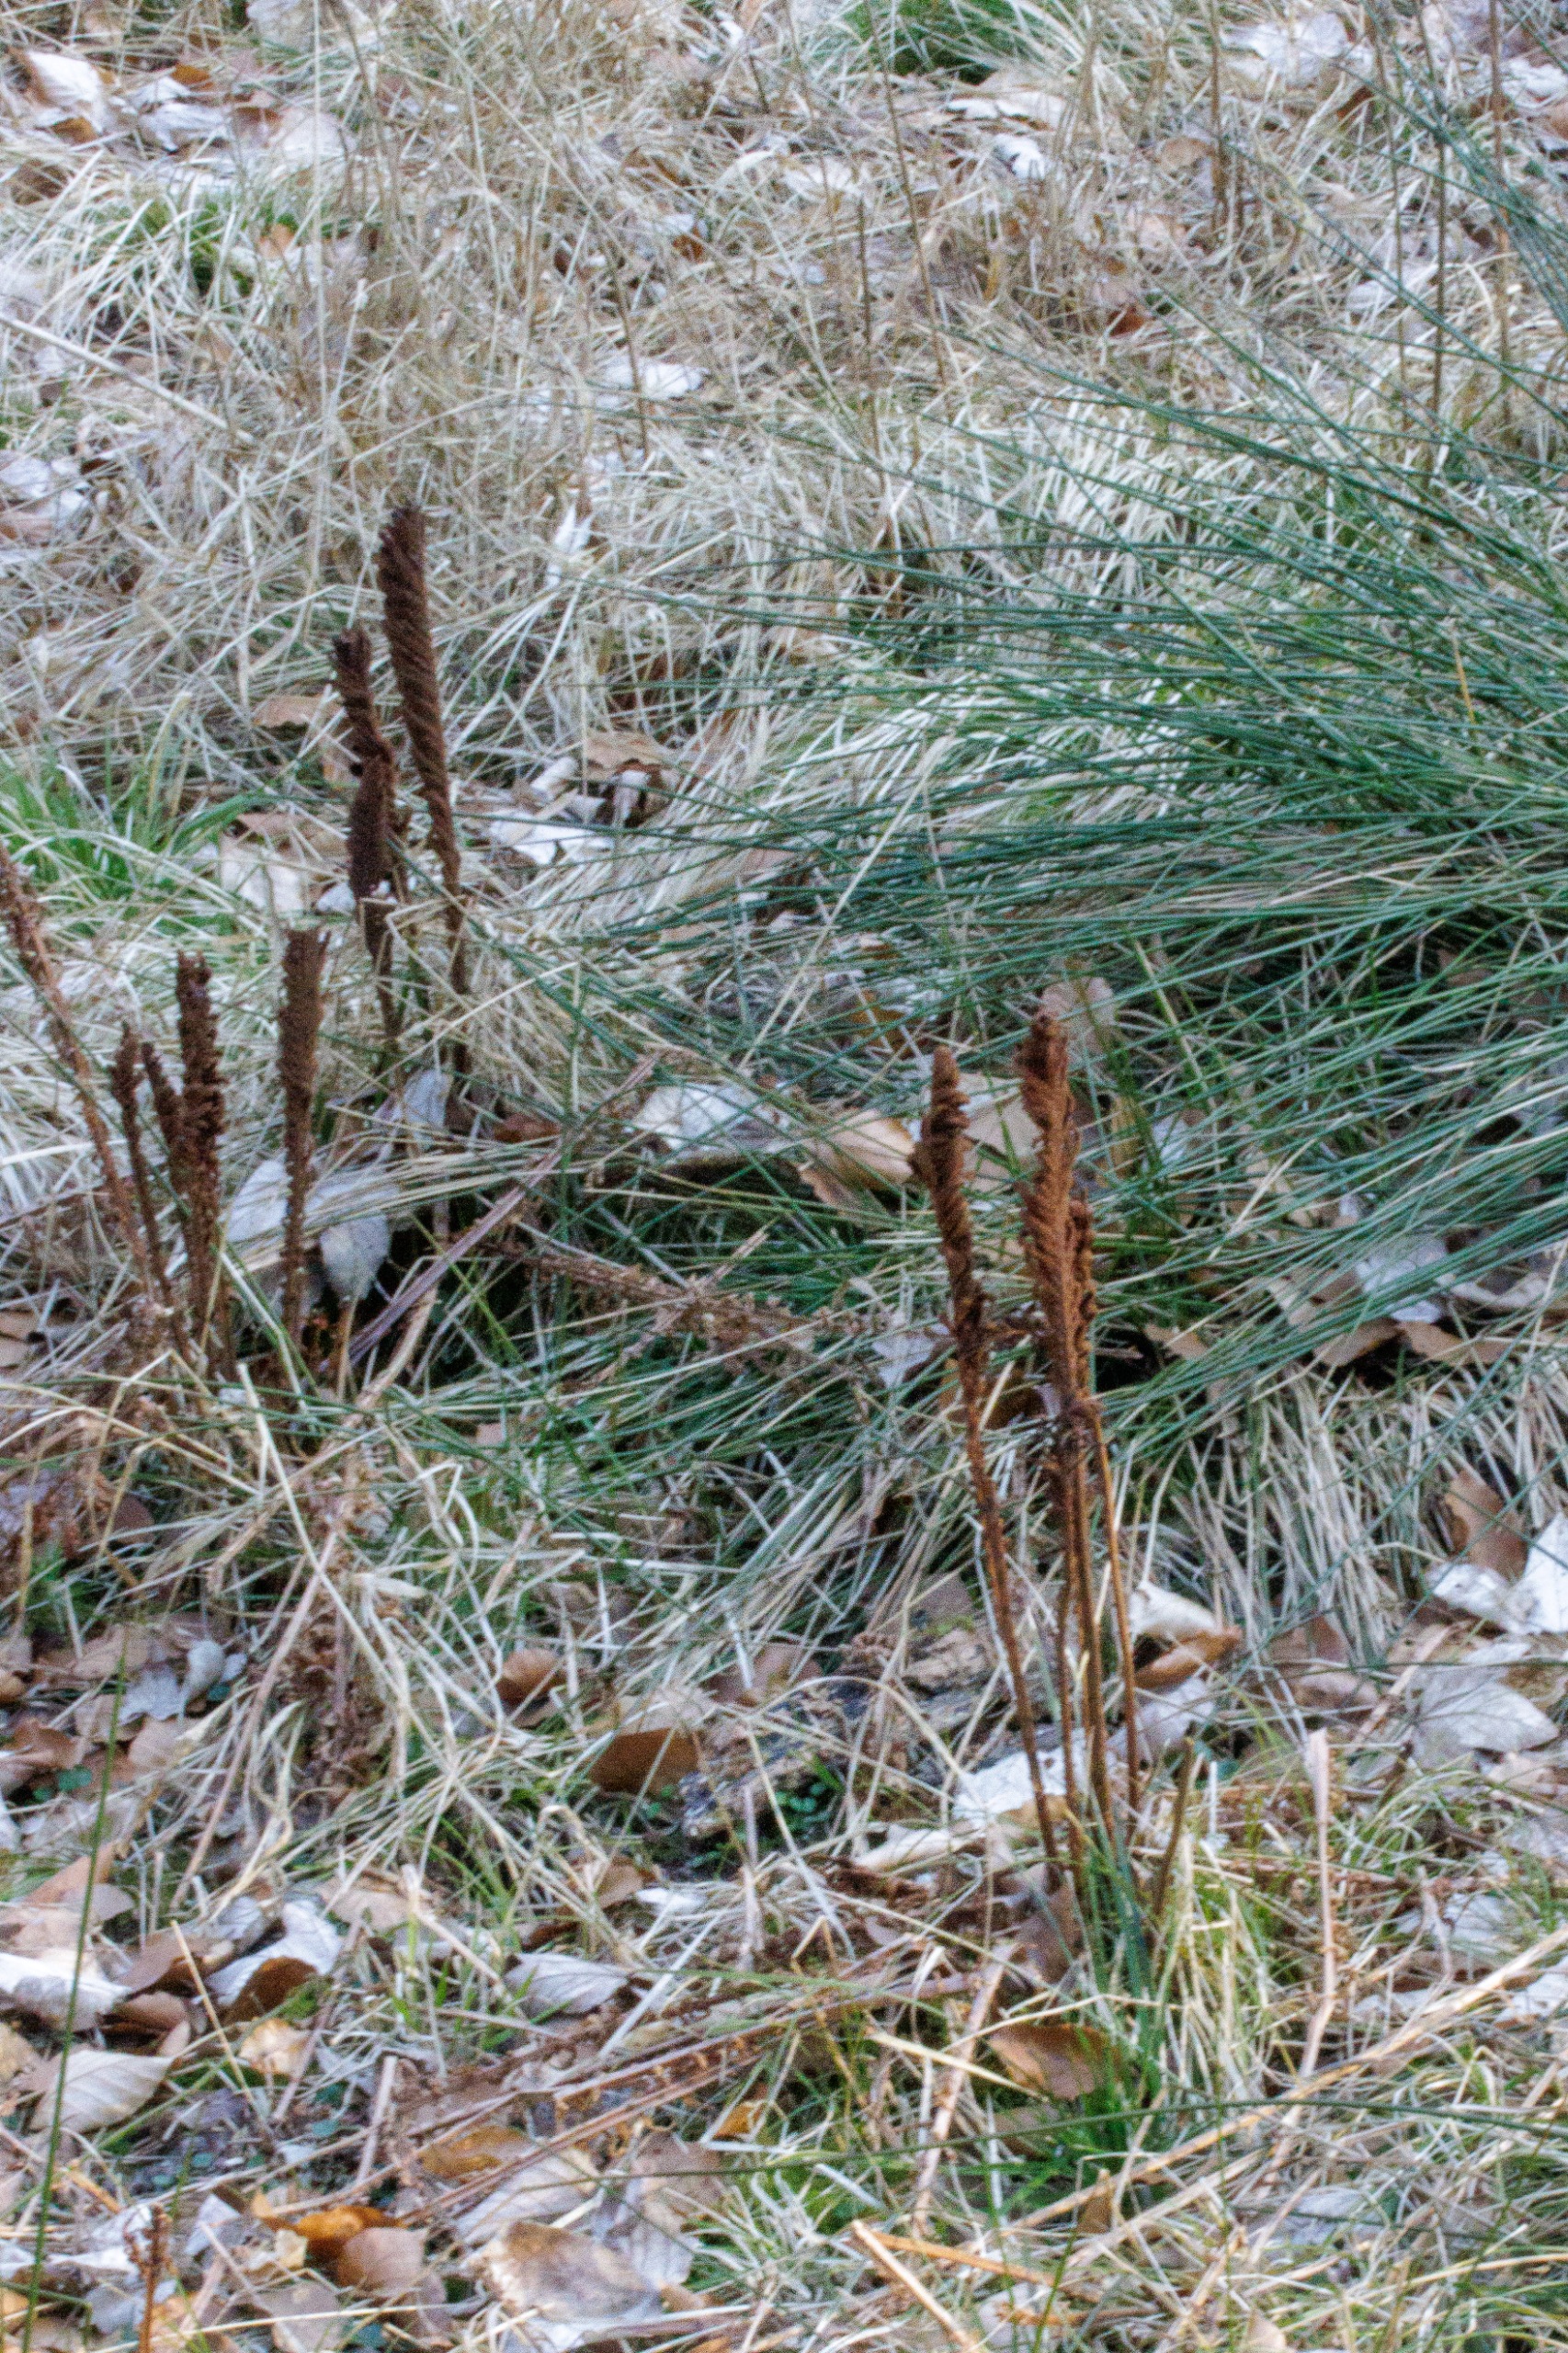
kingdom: Plantae
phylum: Tracheophyta
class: Polypodiopsida
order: Polypodiales
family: Onocleaceae
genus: Matteuccia
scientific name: Matteuccia struthiopteris
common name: Strudsvinge
